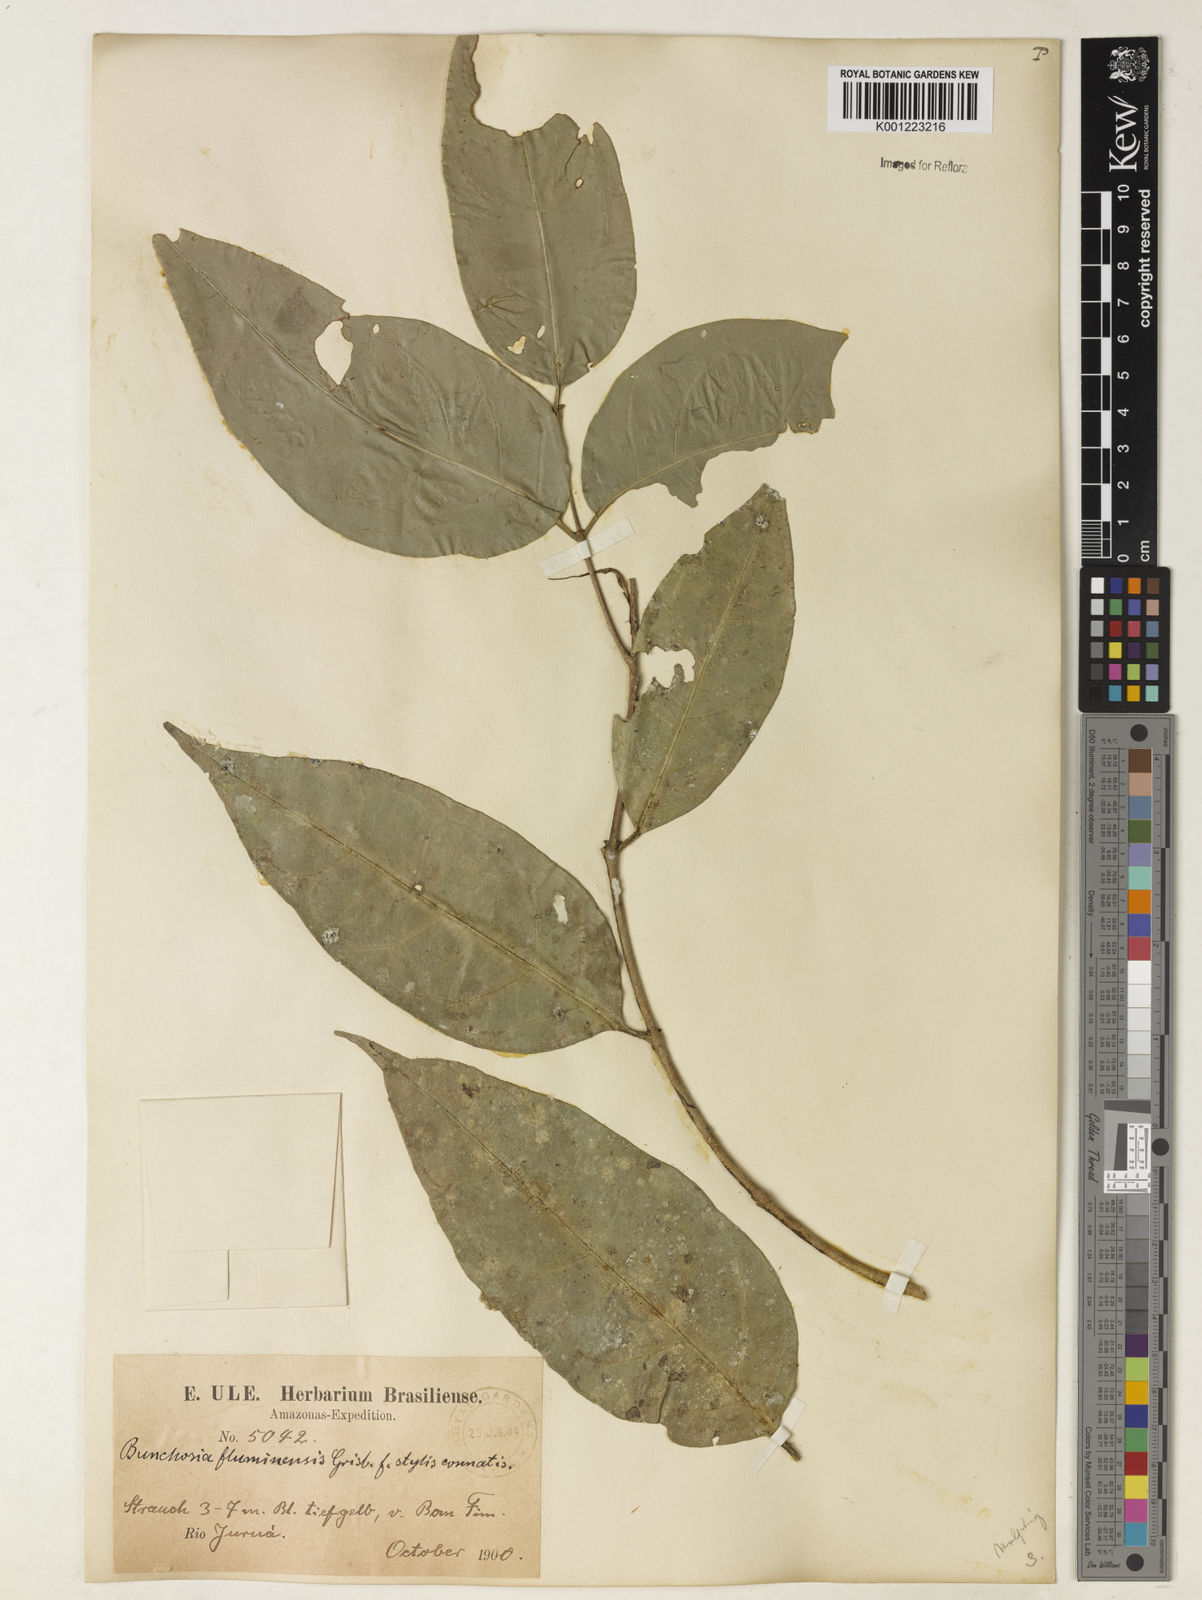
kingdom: Plantae
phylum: Tracheophyta
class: Magnoliopsida
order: Malpighiales
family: Malpighiaceae
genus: Bunchosia
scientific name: Bunchosia fluminensis
